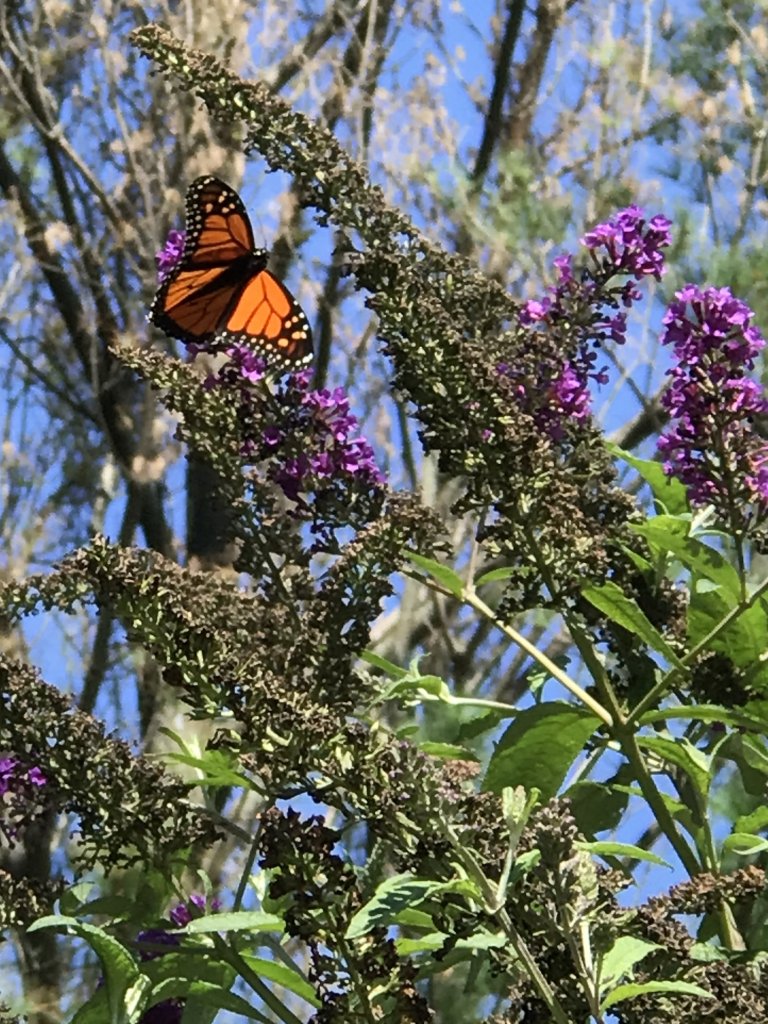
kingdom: Animalia
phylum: Arthropoda
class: Insecta
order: Lepidoptera
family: Nymphalidae
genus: Danaus
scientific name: Danaus plexippus
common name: Monarch
